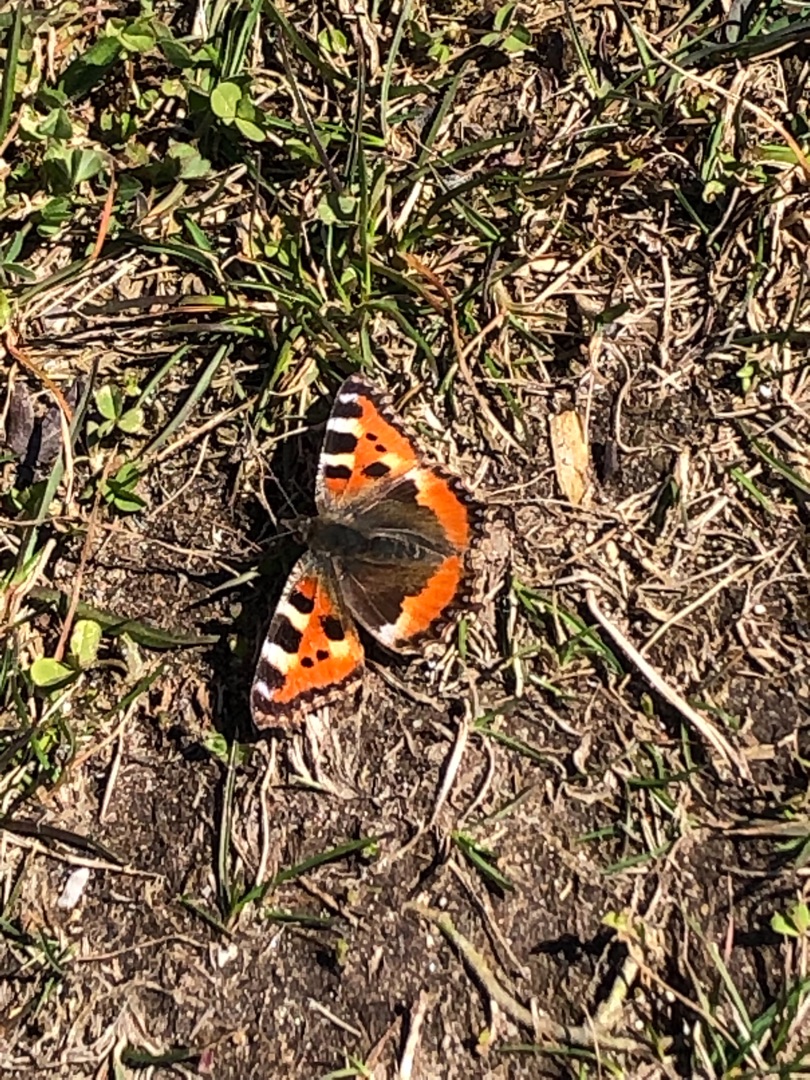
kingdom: Animalia
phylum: Arthropoda
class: Insecta
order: Lepidoptera
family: Nymphalidae
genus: Aglais
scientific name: Aglais urticae
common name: Nældens takvinge
